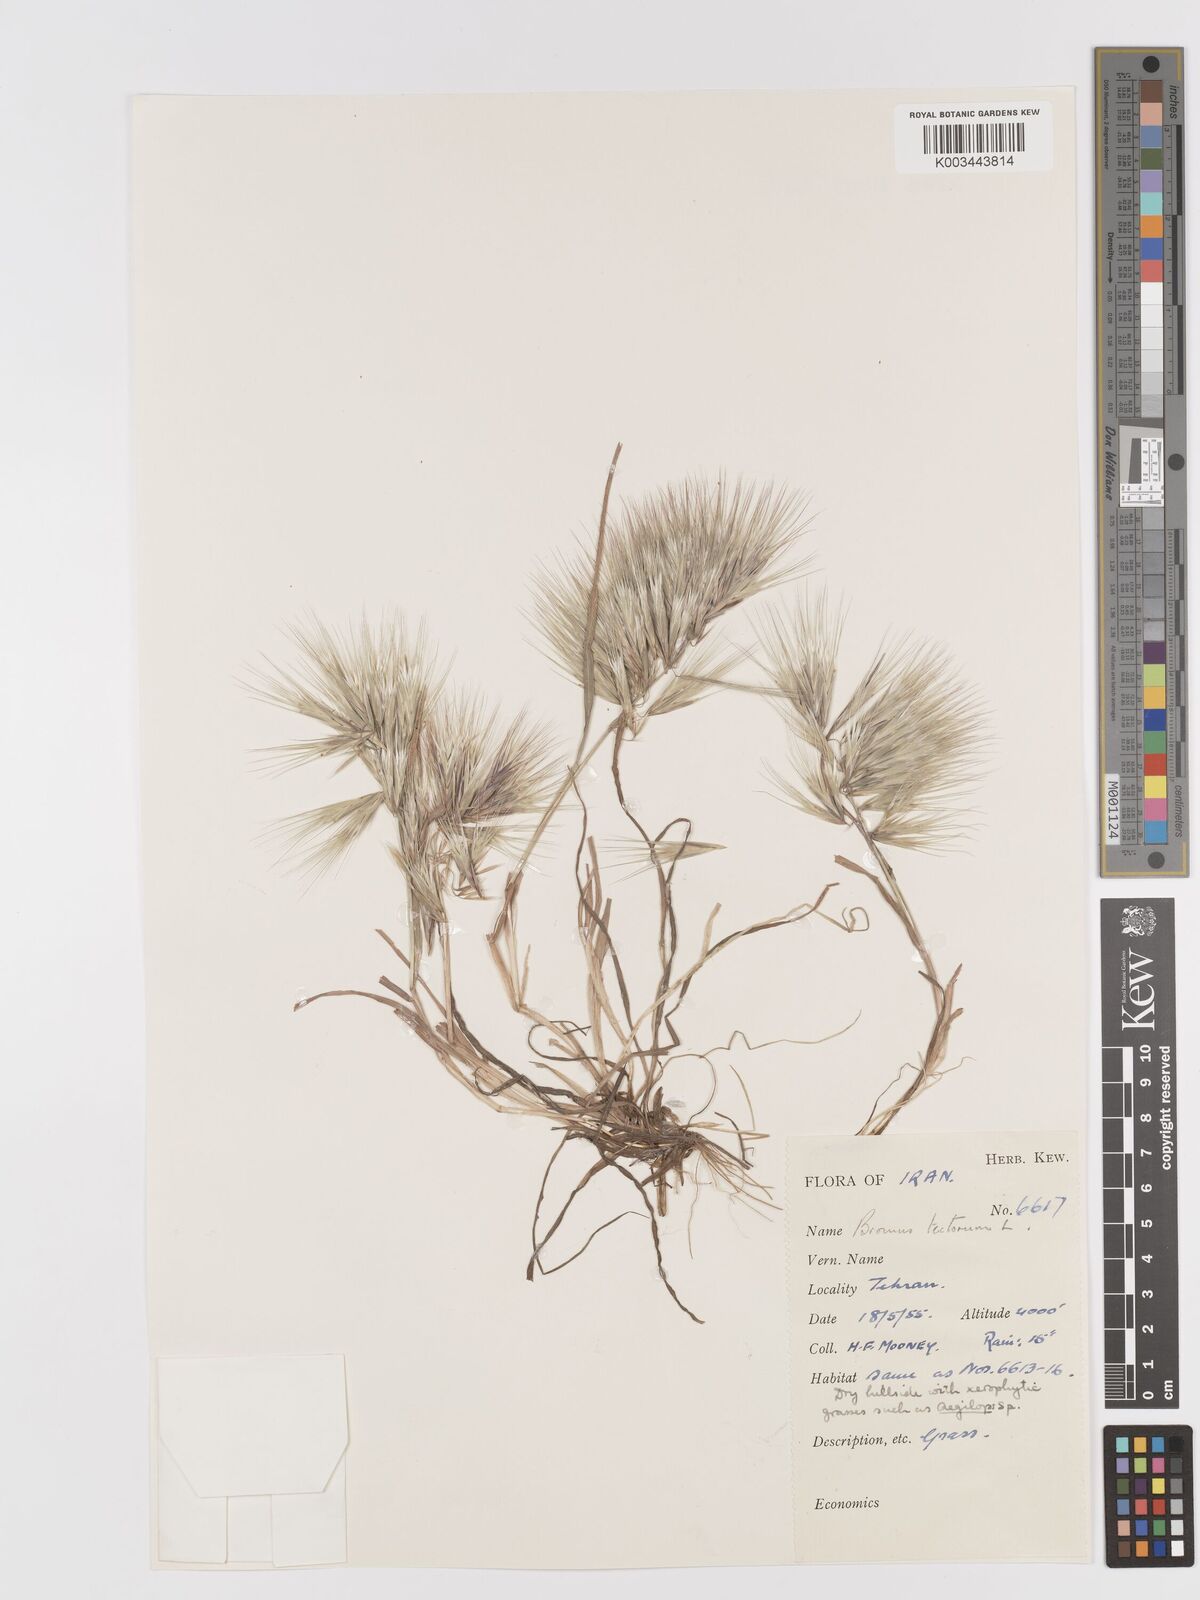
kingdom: Plantae
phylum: Tracheophyta
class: Liliopsida
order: Poales
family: Poaceae
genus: Bromus
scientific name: Bromus tectorum
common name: Cheatgrass
